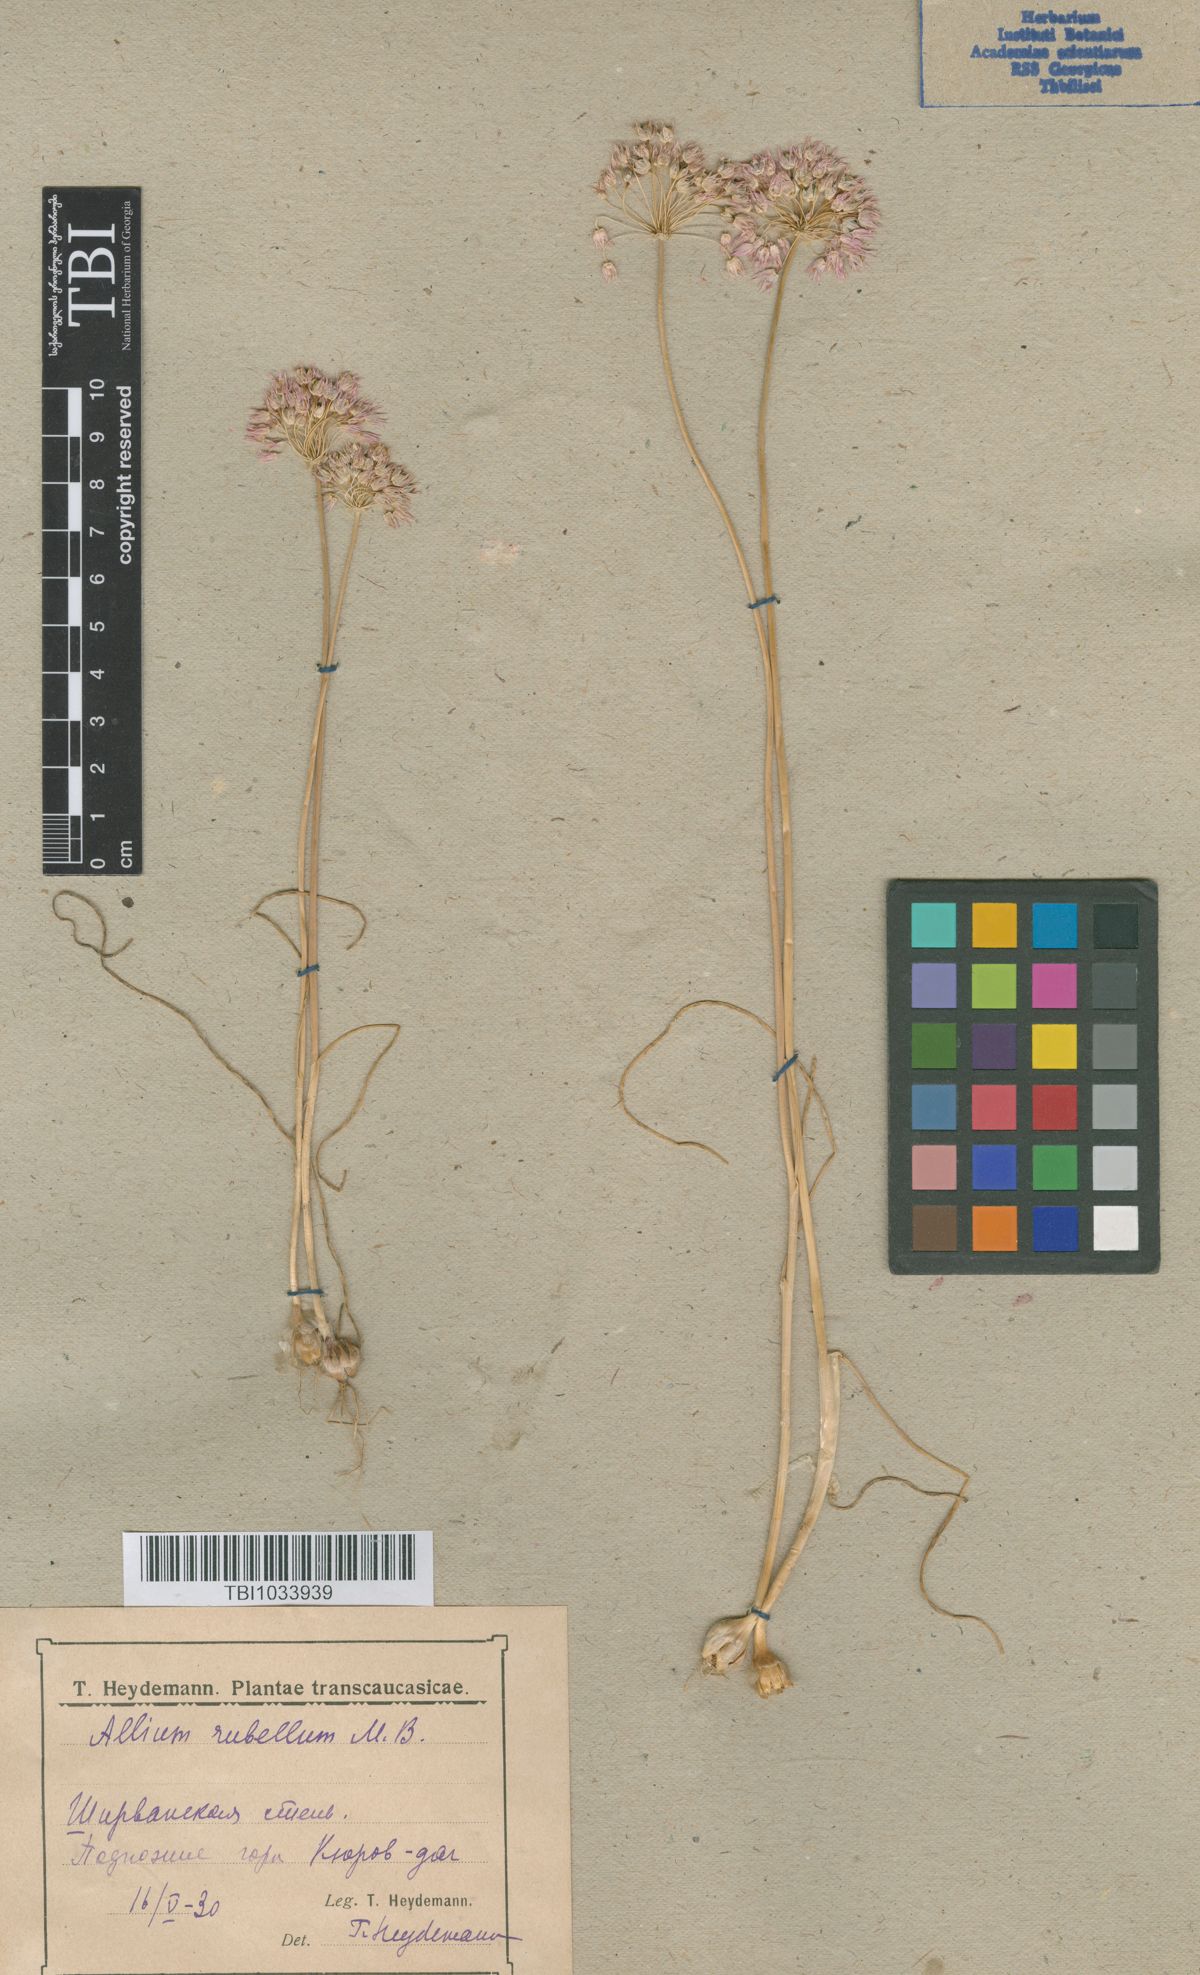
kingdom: Plantae
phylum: Tracheophyta
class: Liliopsida
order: Asparagales
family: Amaryllidaceae
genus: Allium
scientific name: Allium rubellum
